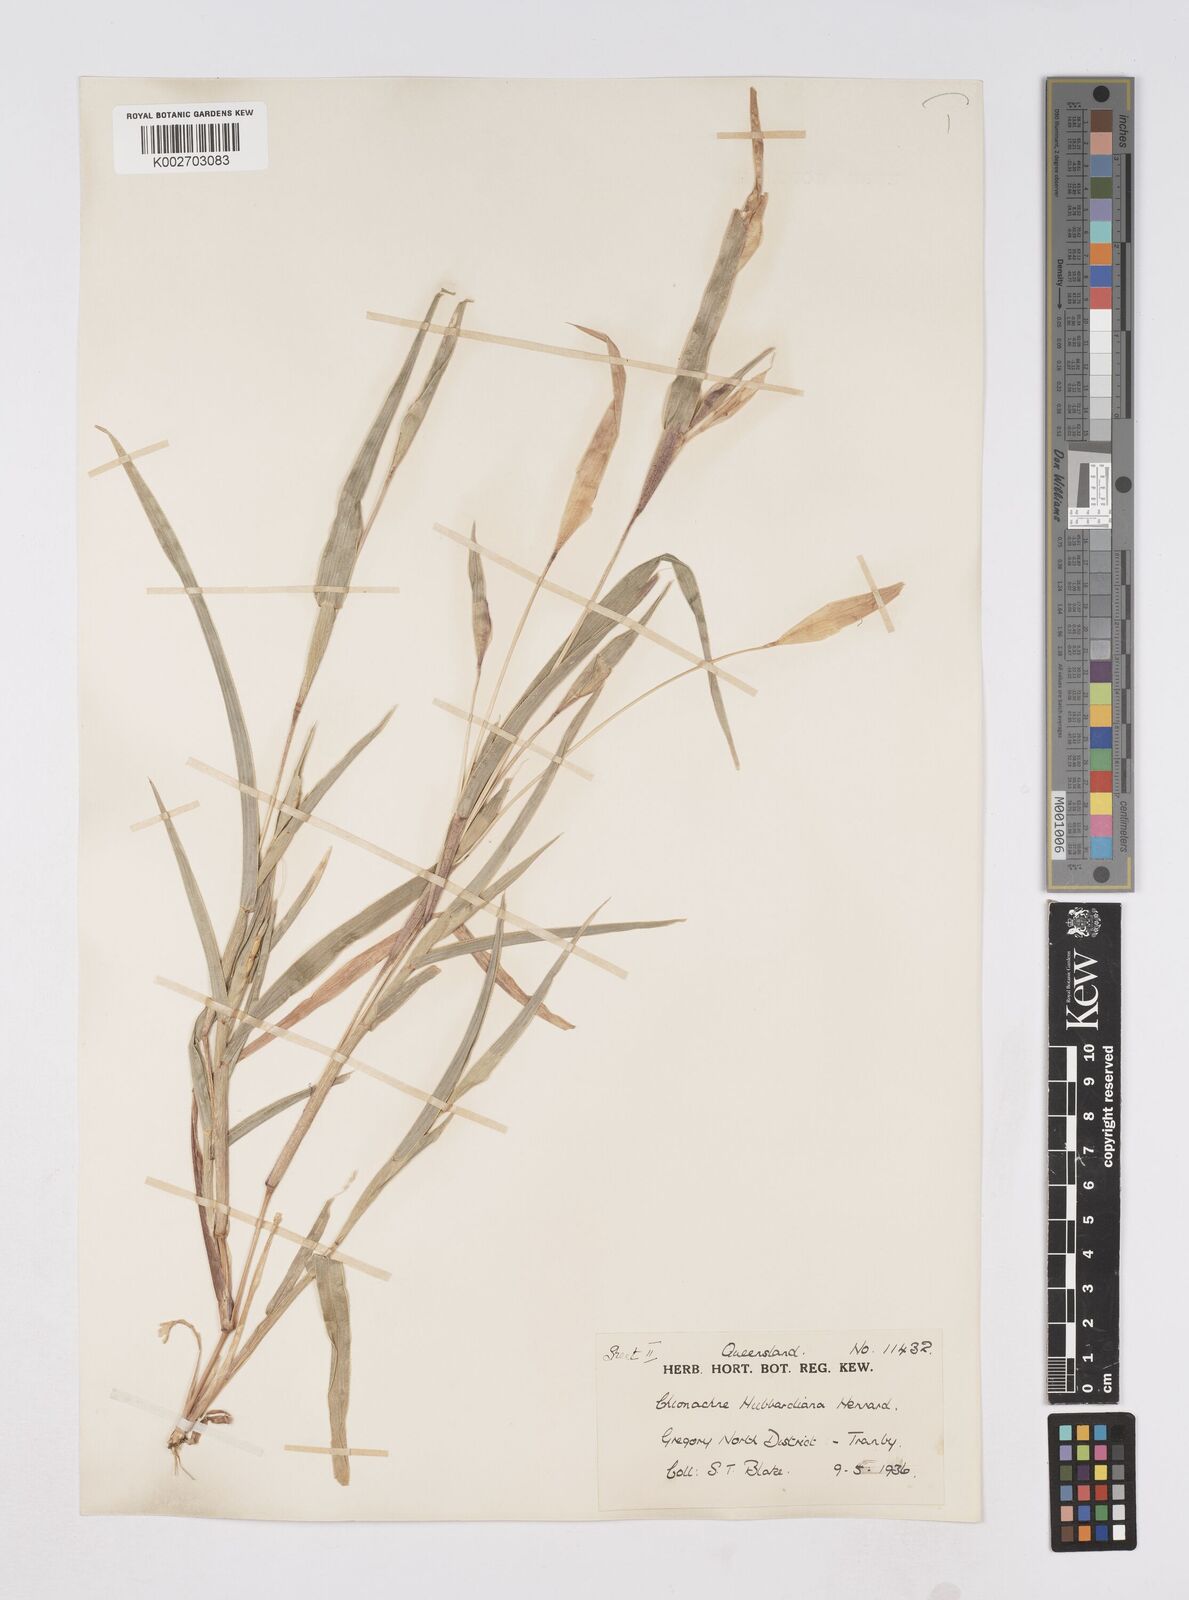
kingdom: Plantae
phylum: Tracheophyta
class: Liliopsida
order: Poales
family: Poaceae
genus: Polytoca
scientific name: Polytoca hubbardiana
